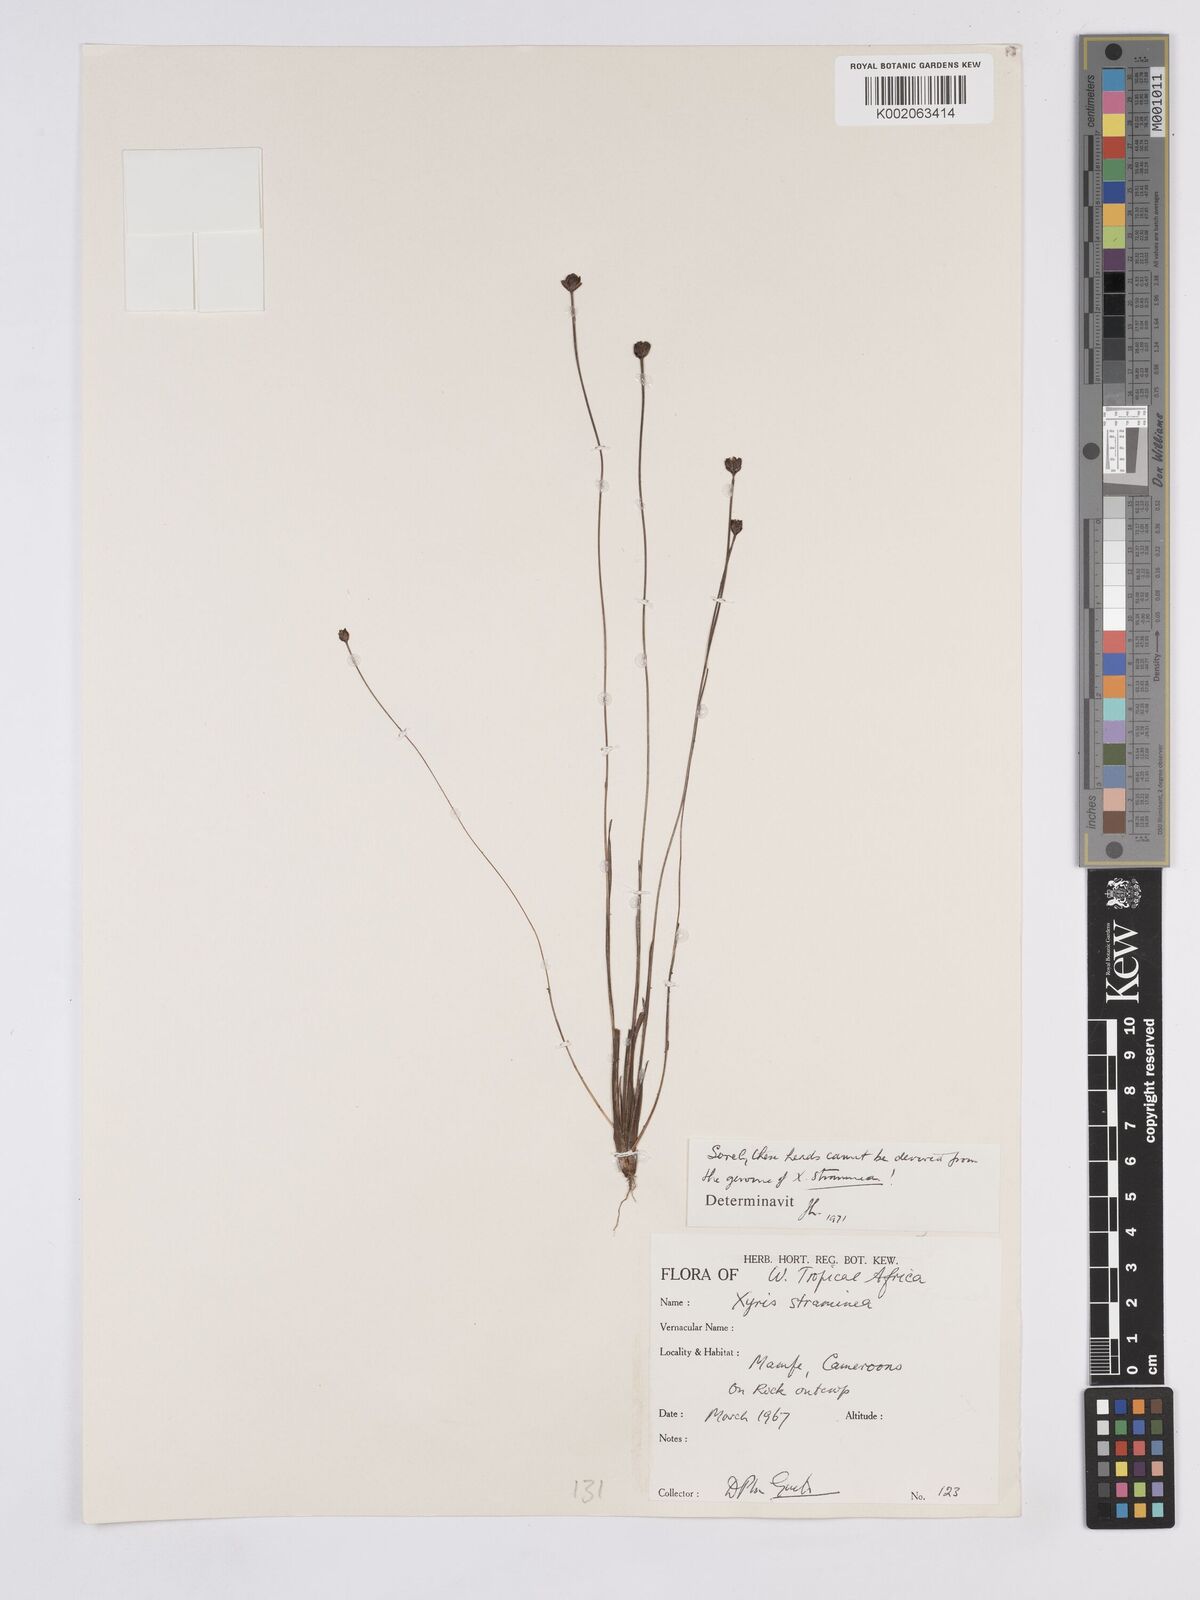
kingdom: Plantae
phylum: Tracheophyta
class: Liliopsida
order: Poales
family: Xyridaceae
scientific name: Xyridaceae
